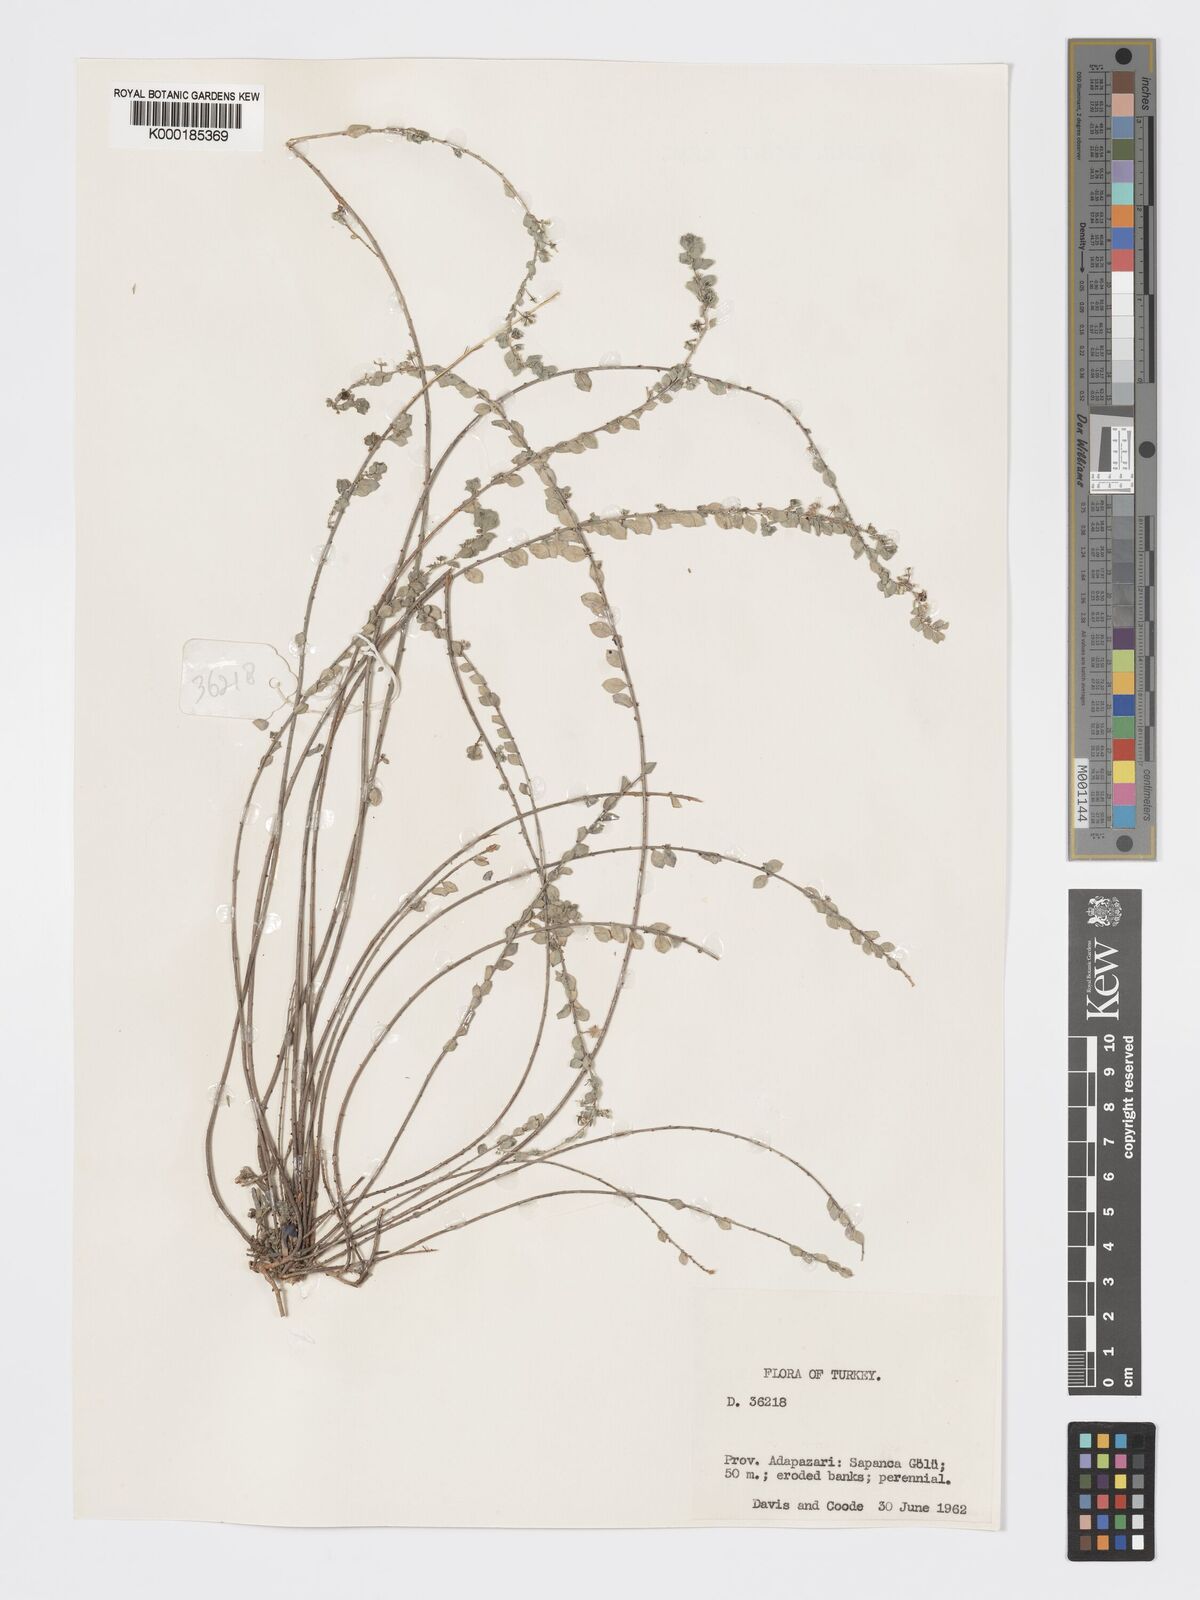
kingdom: Plantae
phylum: Tracheophyta
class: Magnoliopsida
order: Malpighiales
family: Phyllanthaceae
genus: Andrachne
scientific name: Andrachne telephioides
